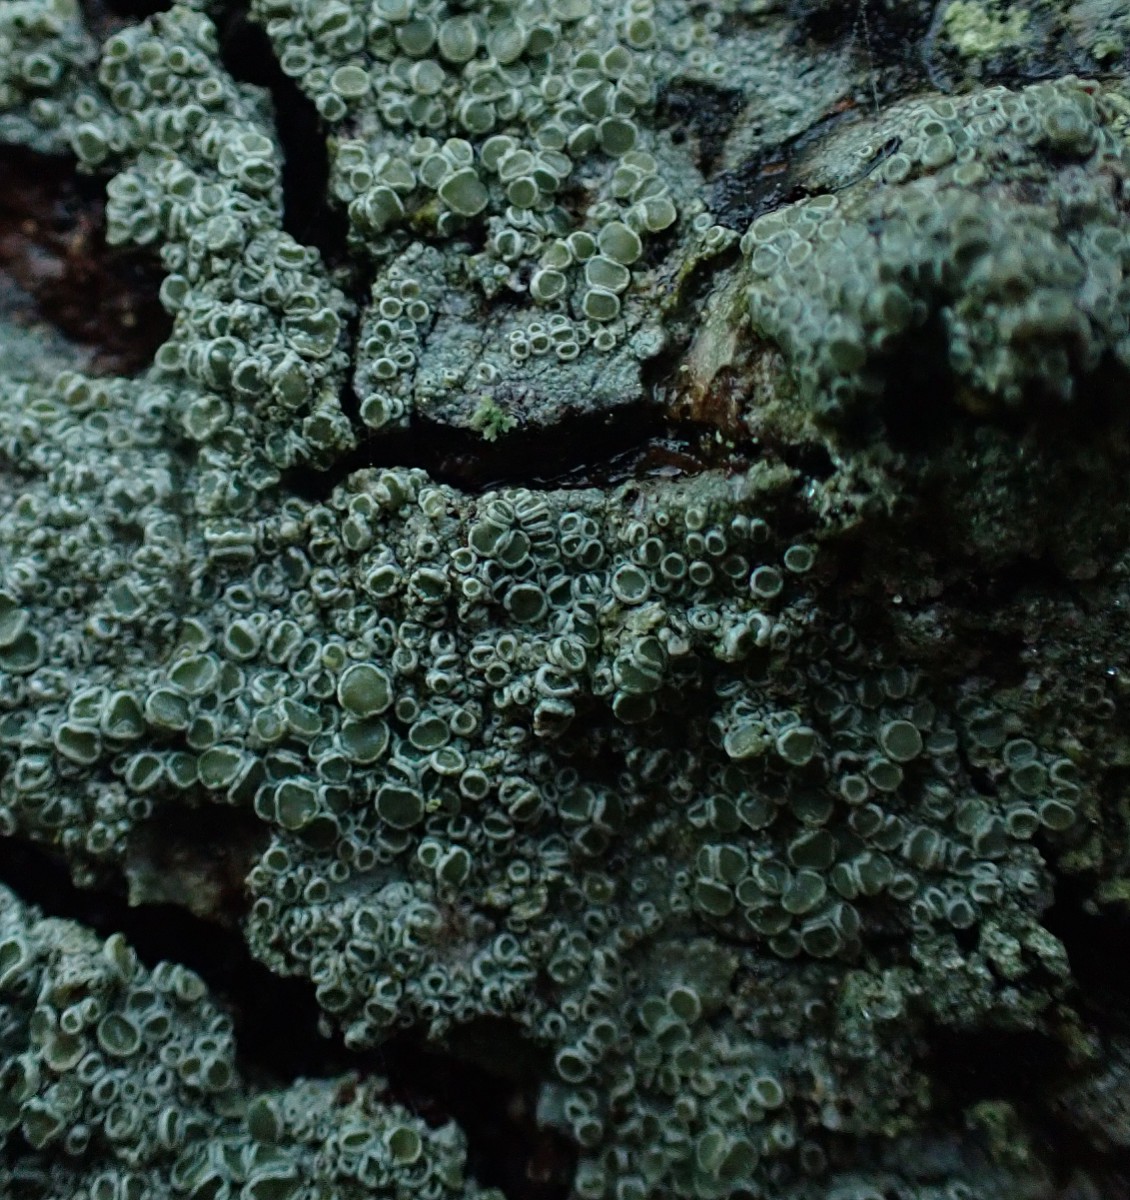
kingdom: Fungi
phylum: Ascomycota
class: Lecanoromycetes
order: Lecanorales
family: Lecanoraceae
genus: Lecanora
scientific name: Lecanora chlarotera
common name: brun kantskivelav
